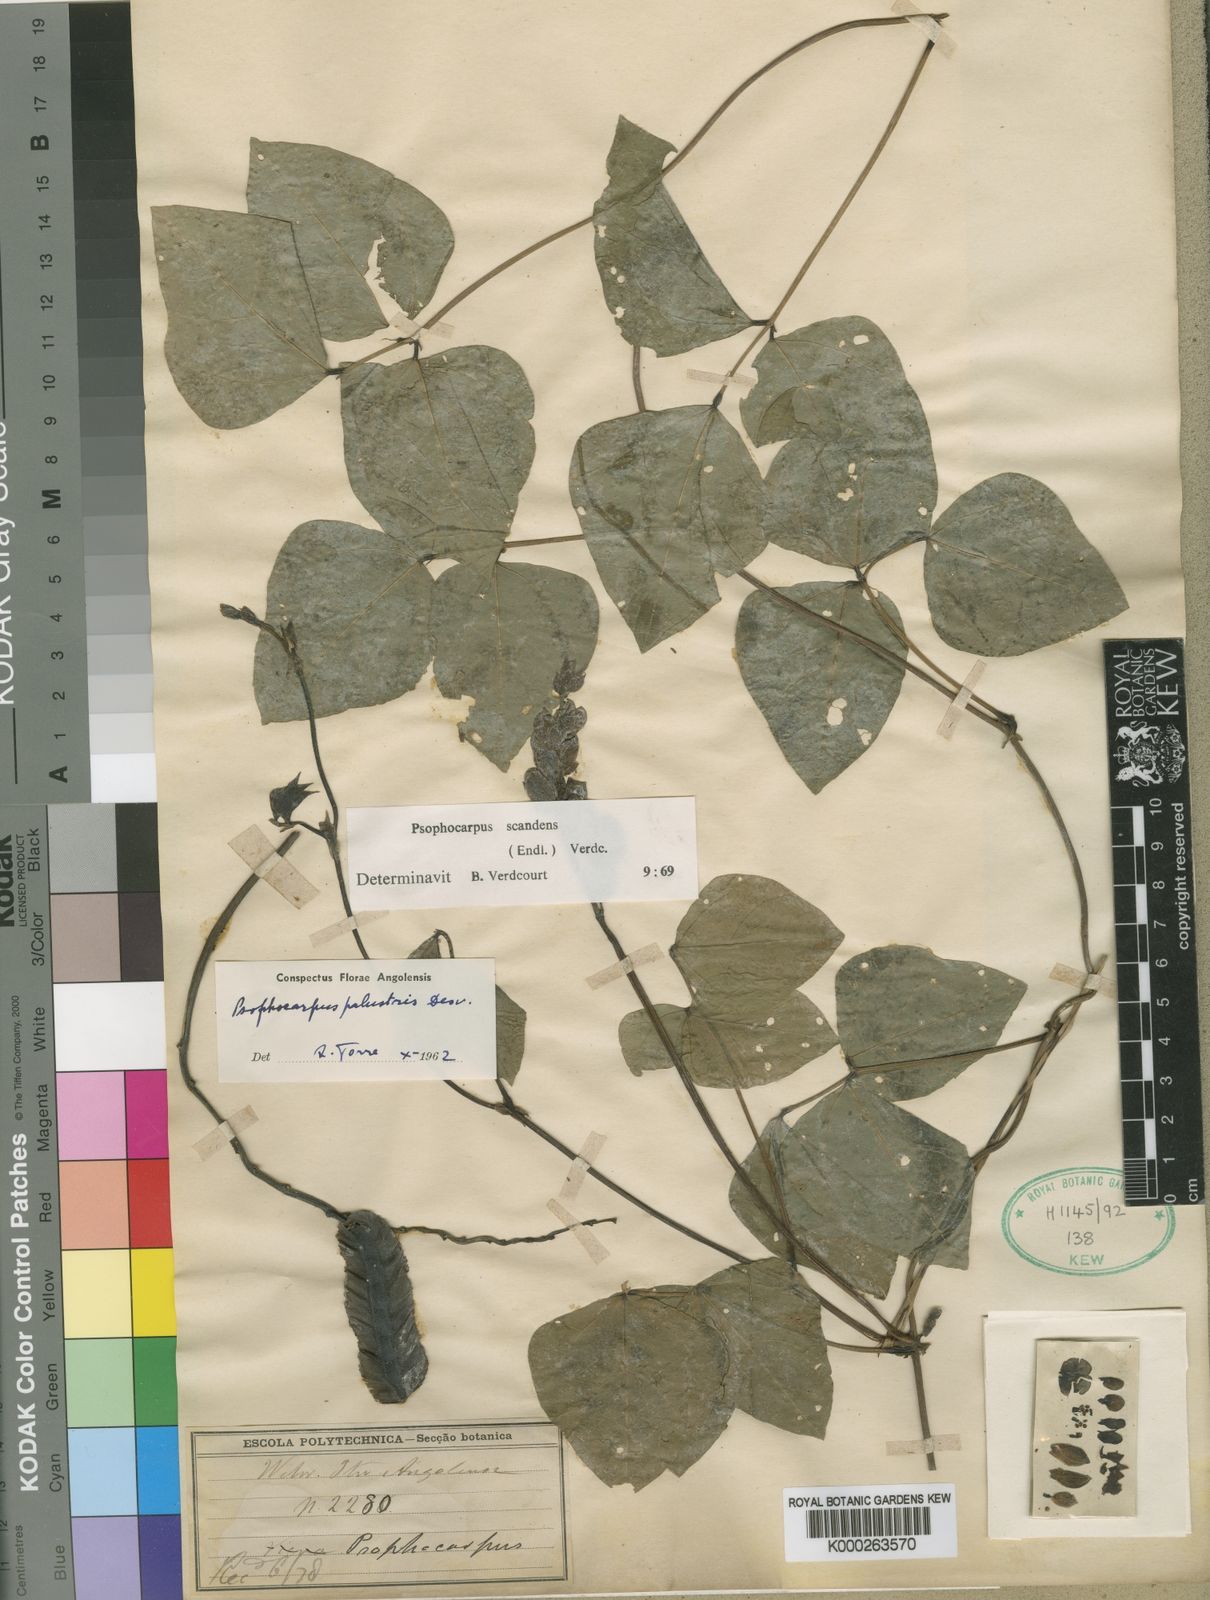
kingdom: Plantae
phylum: Tracheophyta
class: Magnoliopsida
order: Fabales
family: Fabaceae
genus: Psophocarpus
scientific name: Psophocarpus palustris
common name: African winged-bean
